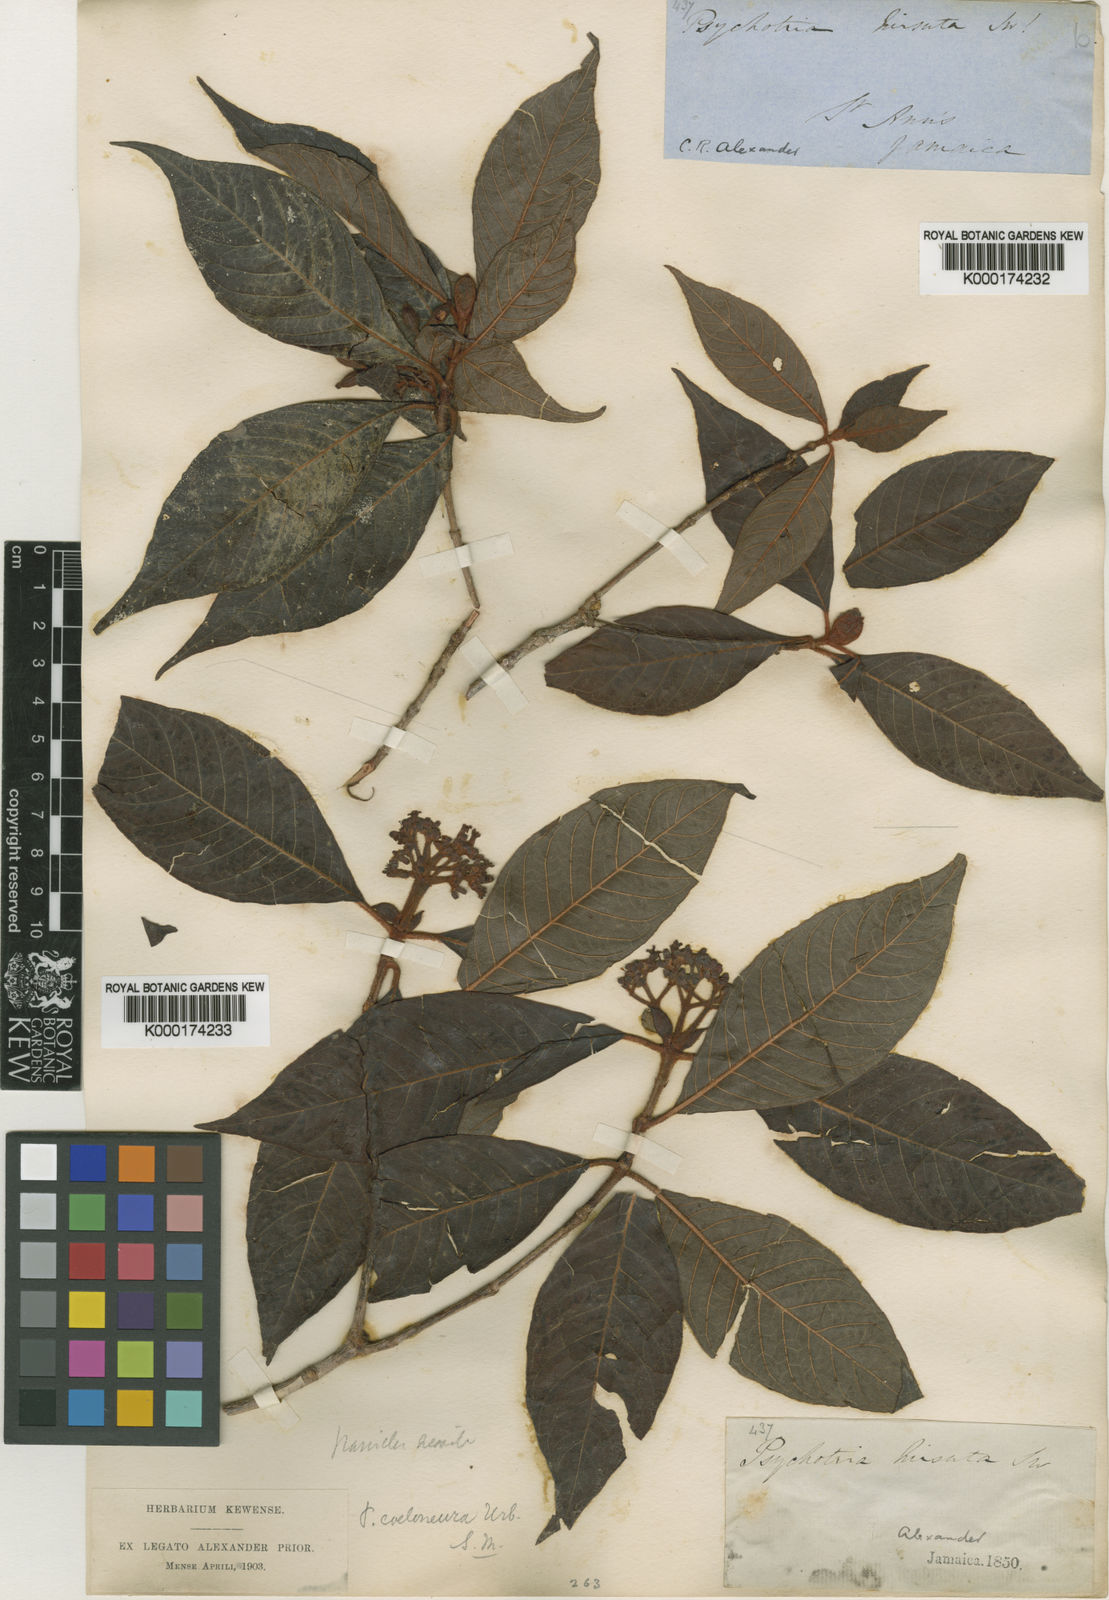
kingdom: Plantae
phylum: Tracheophyta
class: Magnoliopsida
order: Gentianales
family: Rubiaceae
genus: Psychotria
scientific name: Psychotria coeloneura
